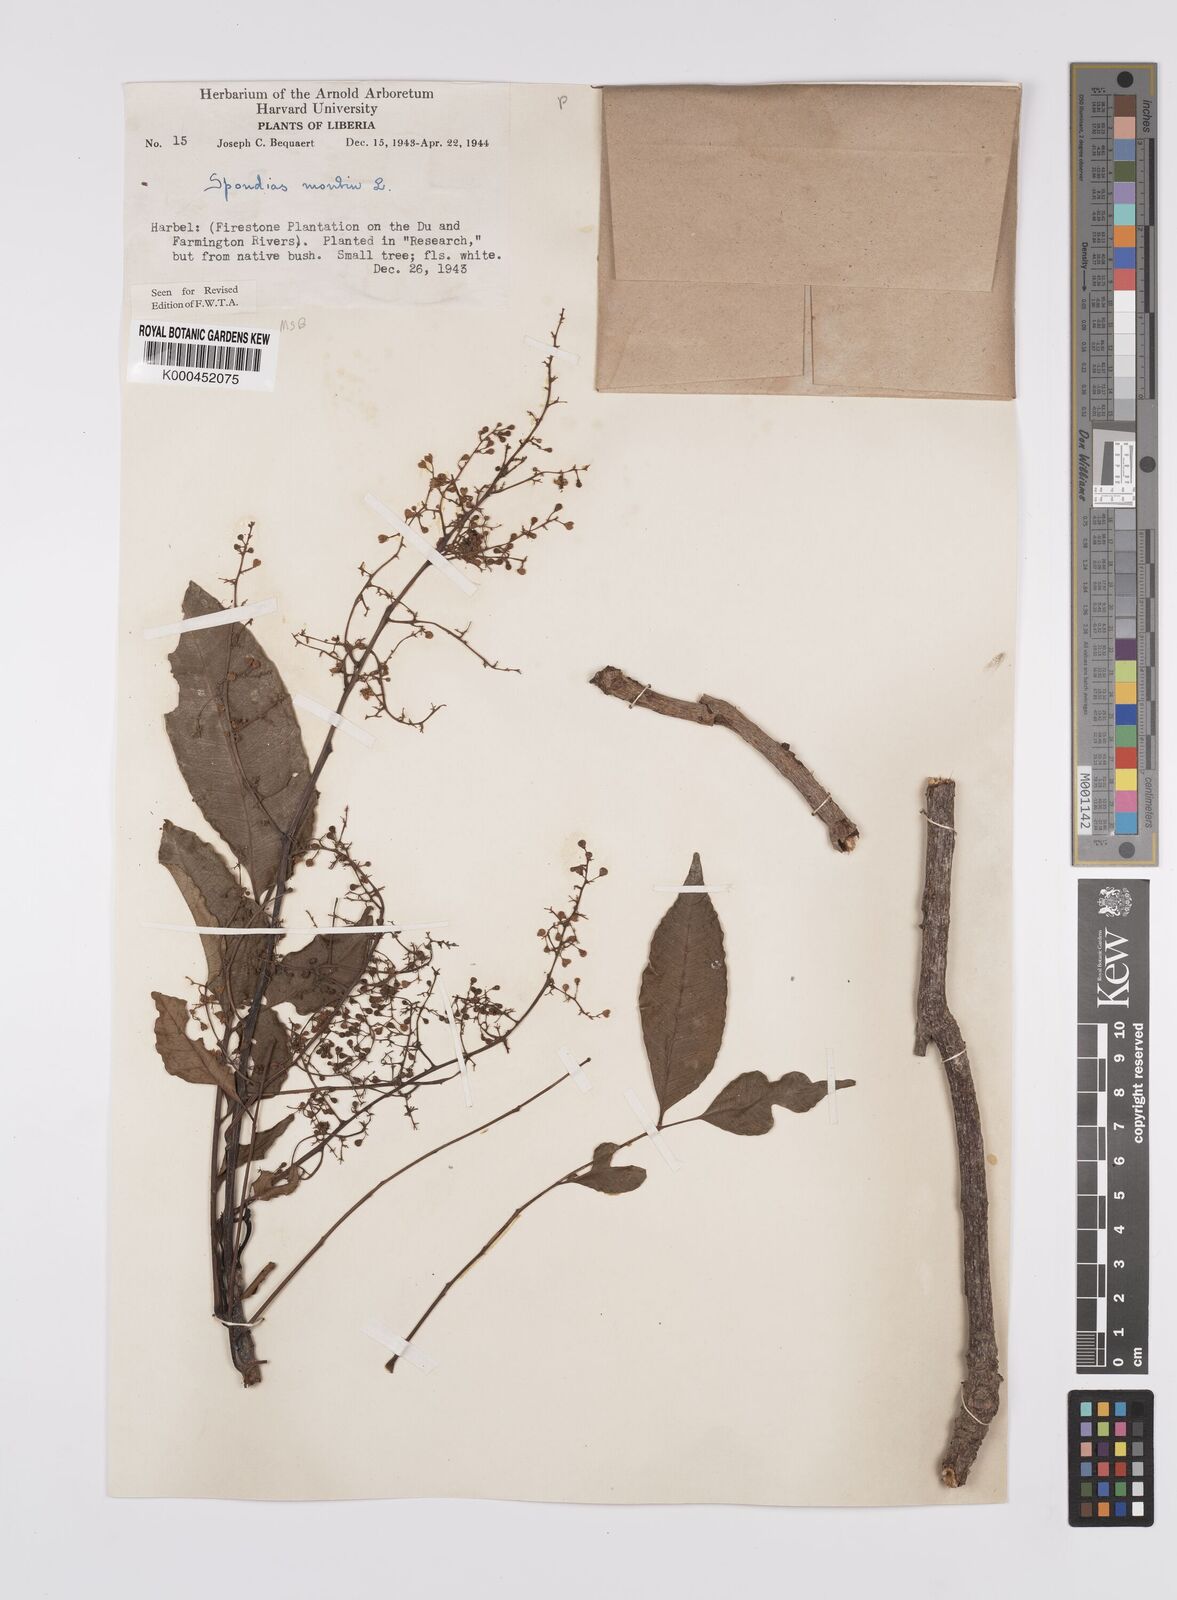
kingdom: Plantae
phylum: Tracheophyta
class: Magnoliopsida
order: Sapindales
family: Anacardiaceae
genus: Spondias
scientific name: Spondias mombin
